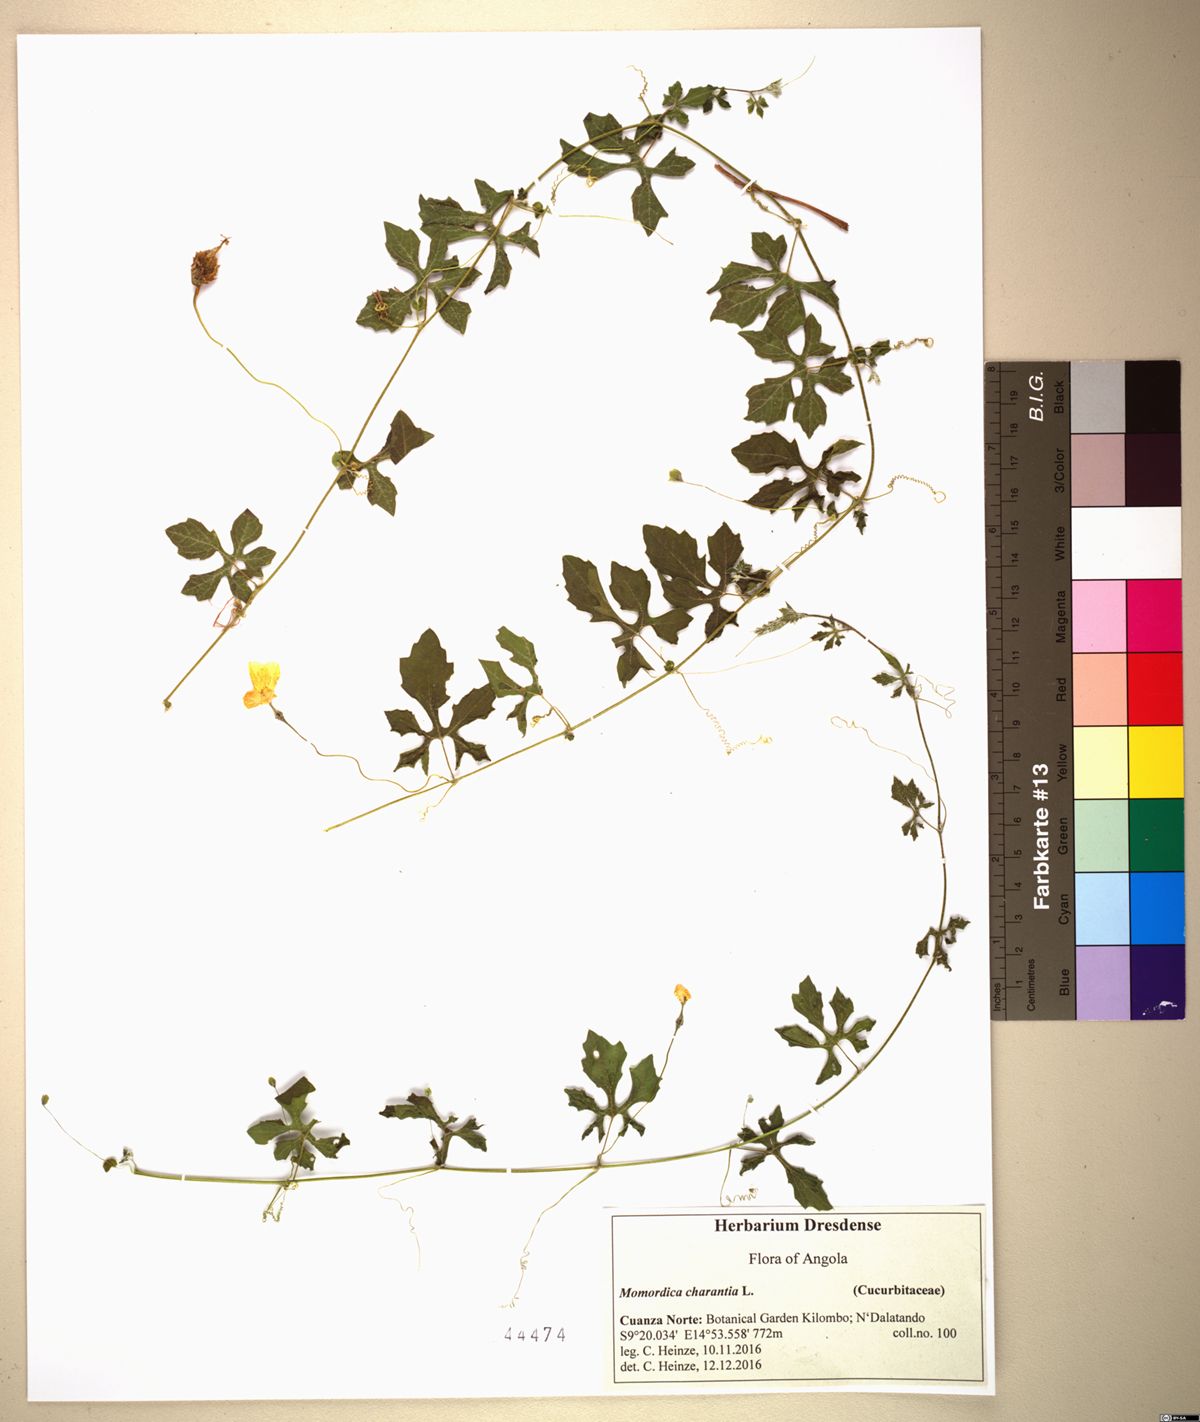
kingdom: Plantae
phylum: Tracheophyta
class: Magnoliopsida
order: Cucurbitales
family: Cucurbitaceae
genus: Momordica
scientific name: Momordica charantia
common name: Balsampear
